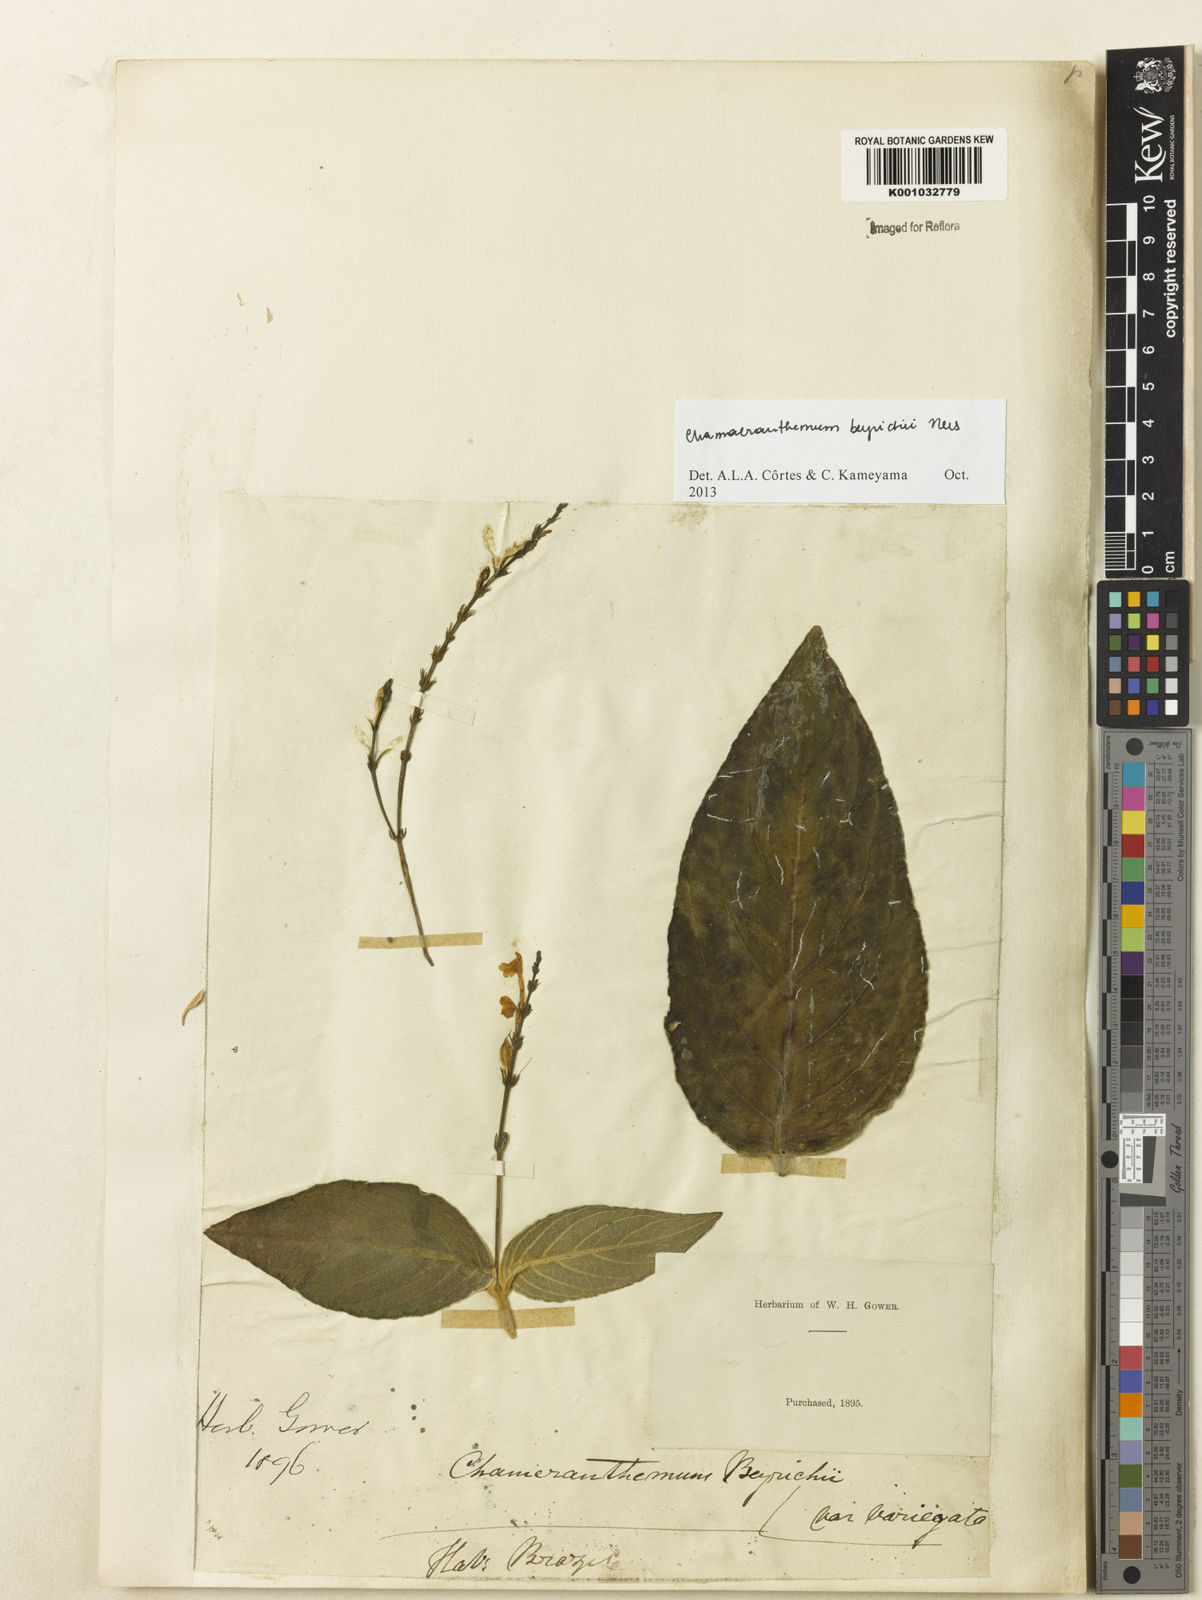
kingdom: Plantae
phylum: Tracheophyta
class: Magnoliopsida
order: Lamiales
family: Acanthaceae
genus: Chamaeranthemum
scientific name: Chamaeranthemum beyrichii
